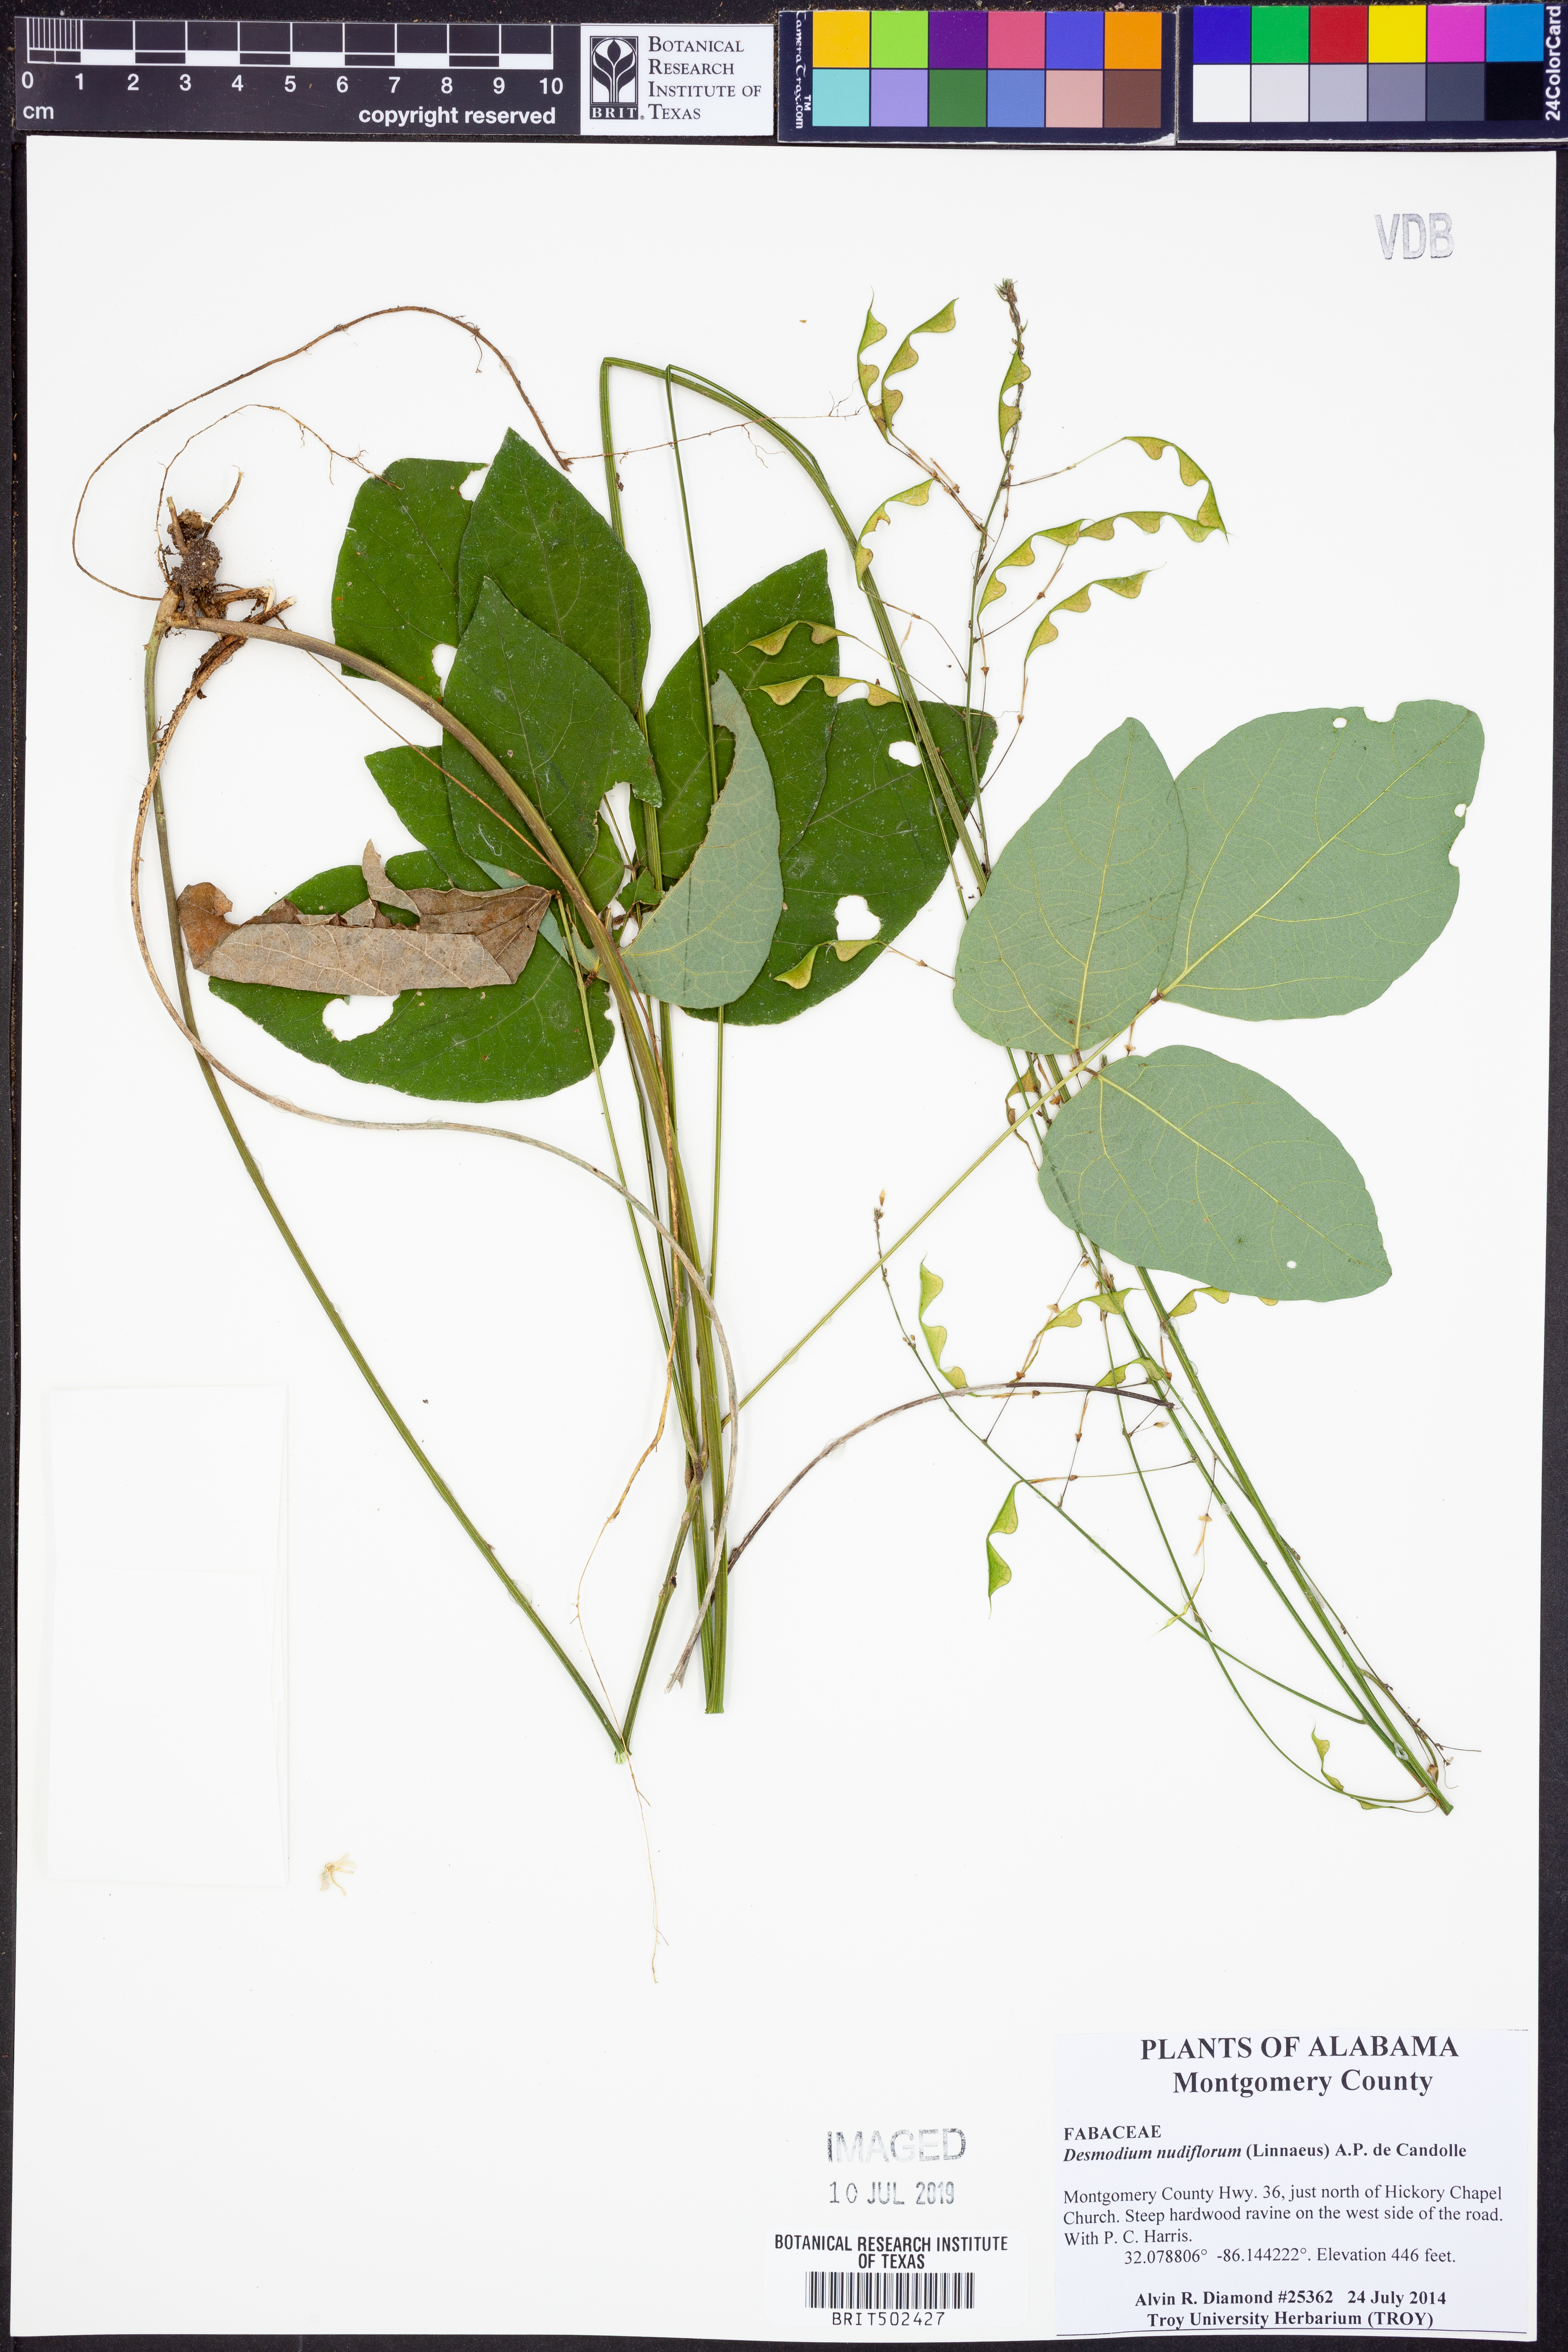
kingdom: Plantae
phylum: Tracheophyta
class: Magnoliopsida
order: Fabales
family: Fabaceae
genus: Hylodesmum
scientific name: Hylodesmum nudiflorum
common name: Bare-stemmed tick-trefoil
